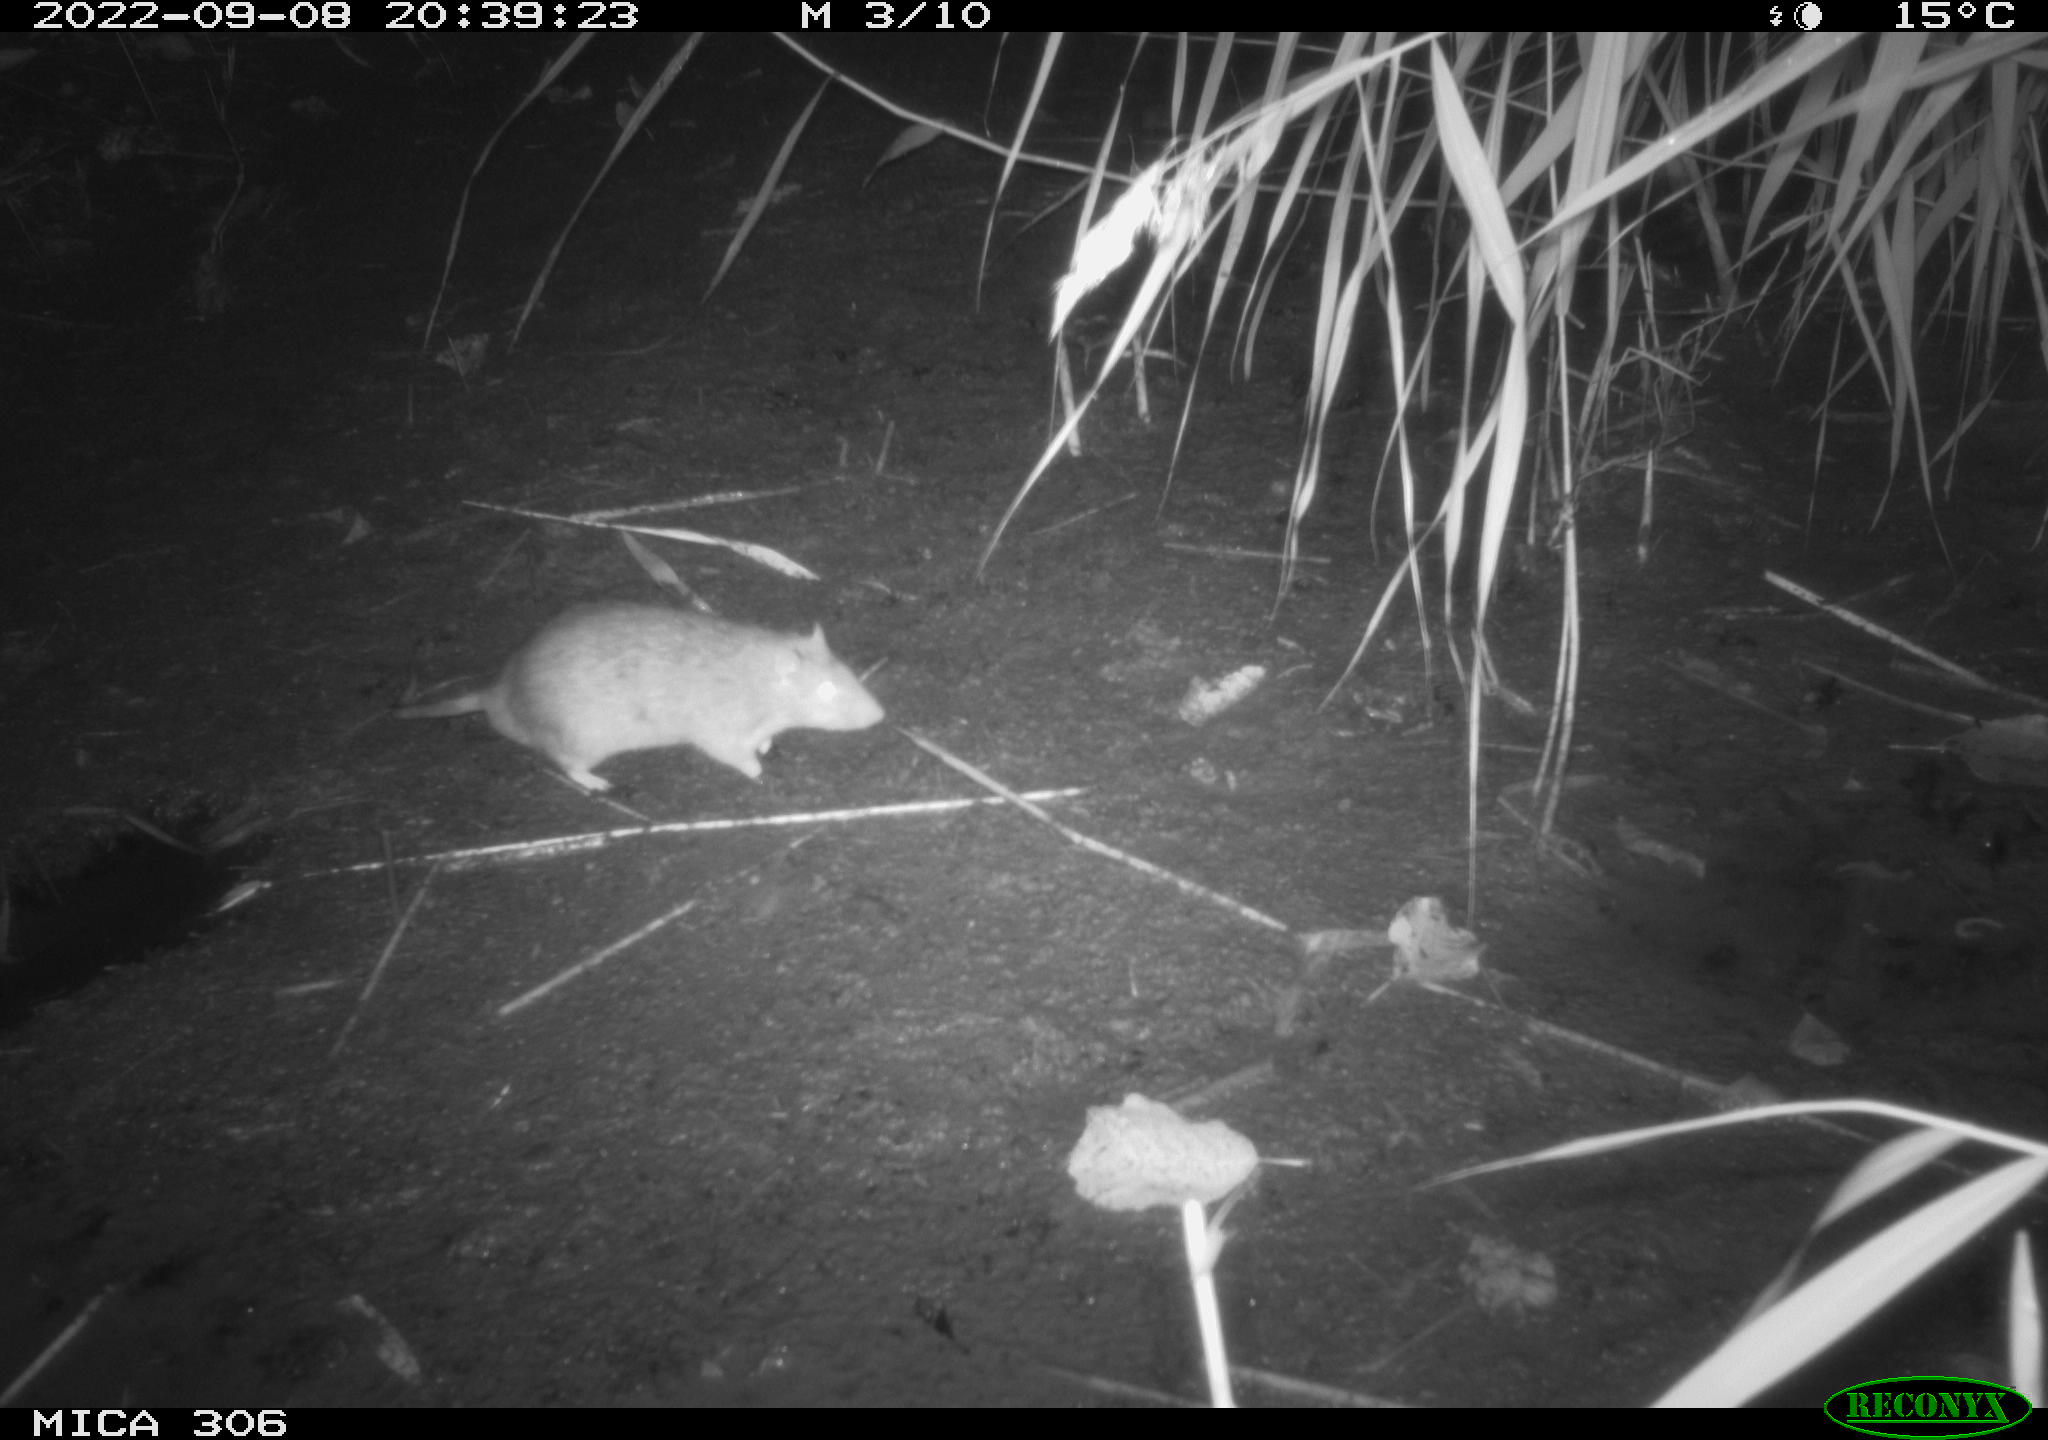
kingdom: Animalia
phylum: Chordata
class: Mammalia
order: Rodentia
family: Muridae
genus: Rattus
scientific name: Rattus norvegicus
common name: Brown rat
